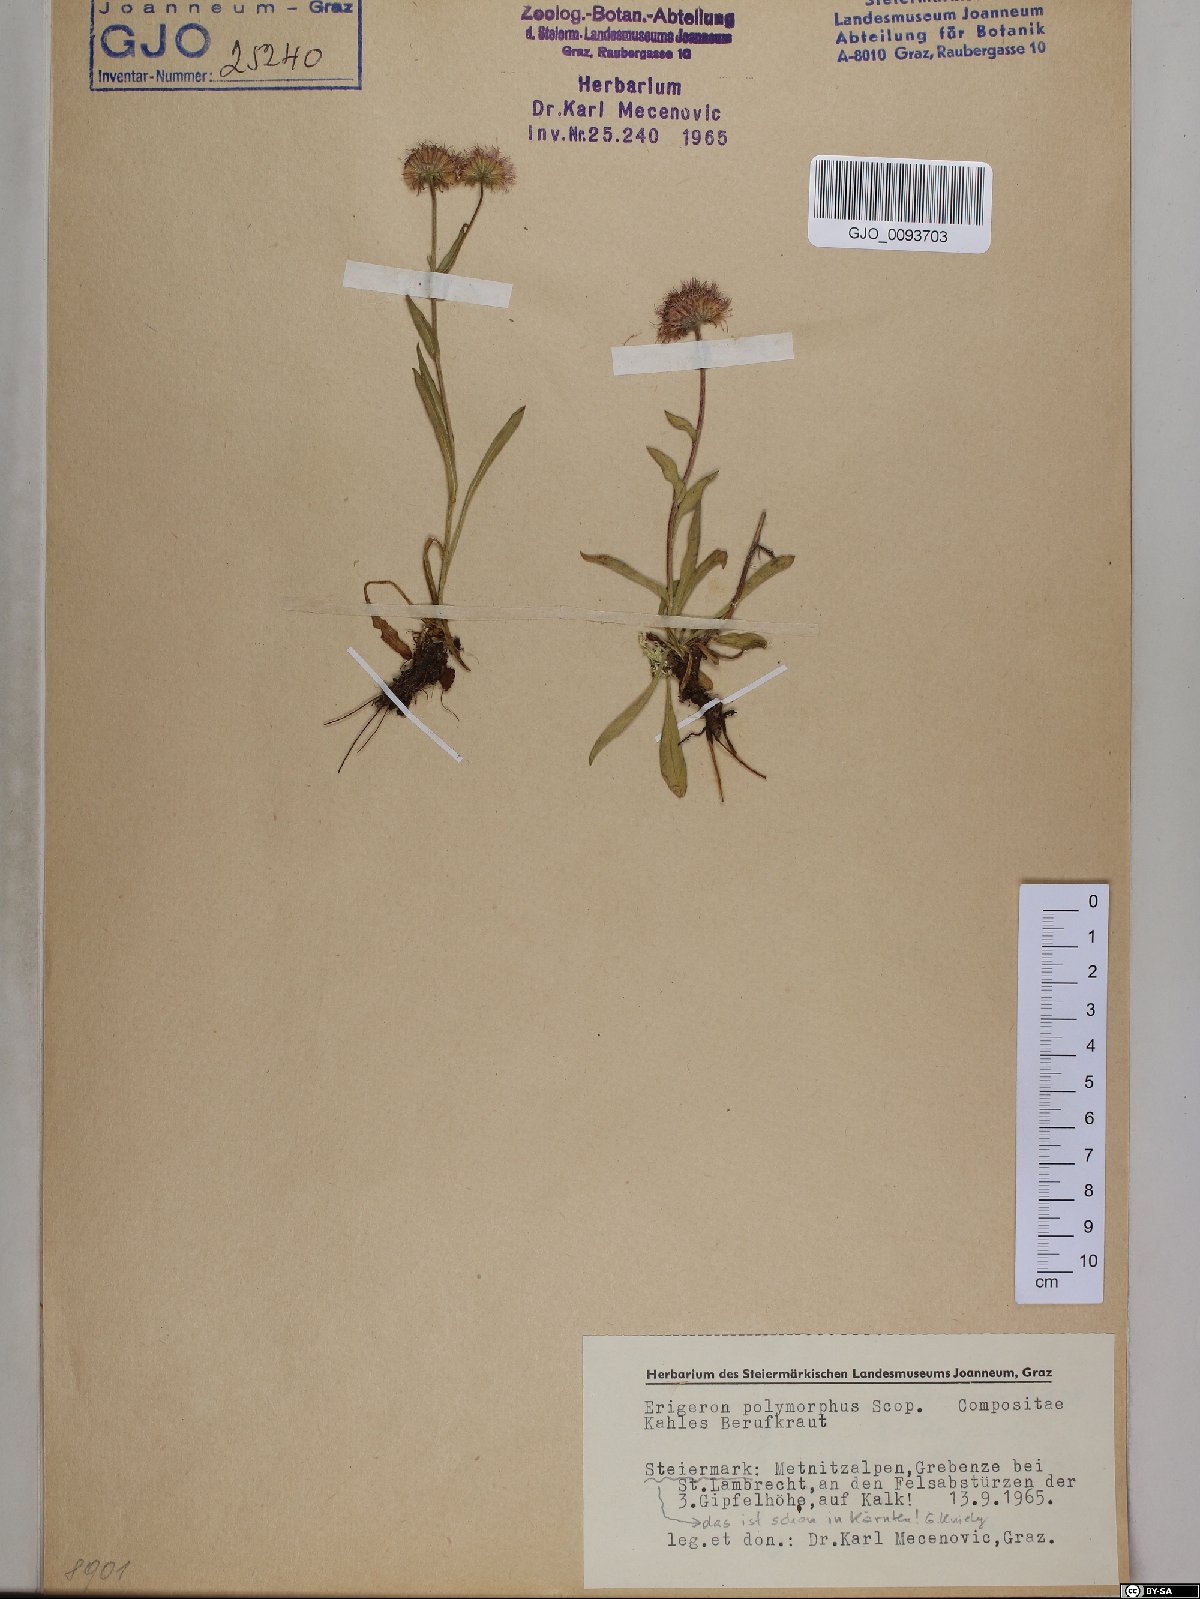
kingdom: Plantae
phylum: Tracheophyta
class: Magnoliopsida
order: Asterales
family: Asteraceae
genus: Erigeron
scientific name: Erigeron alpinus
